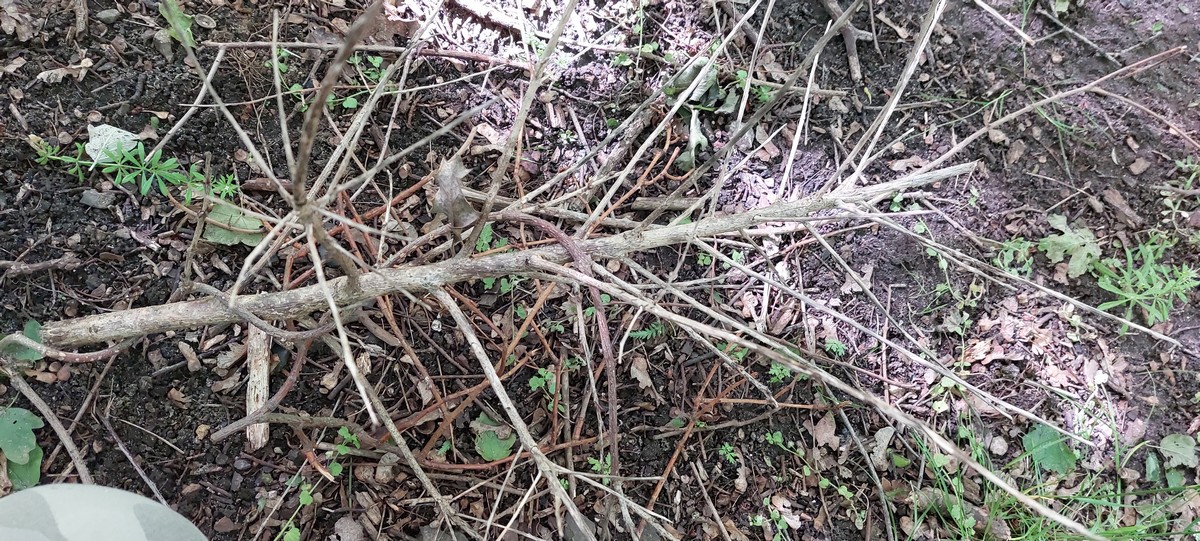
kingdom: Fungi
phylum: Ascomycota
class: Dothideomycetes
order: Capnodiales
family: Cladosporiaceae
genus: Cladosporium
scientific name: Cladosporium
